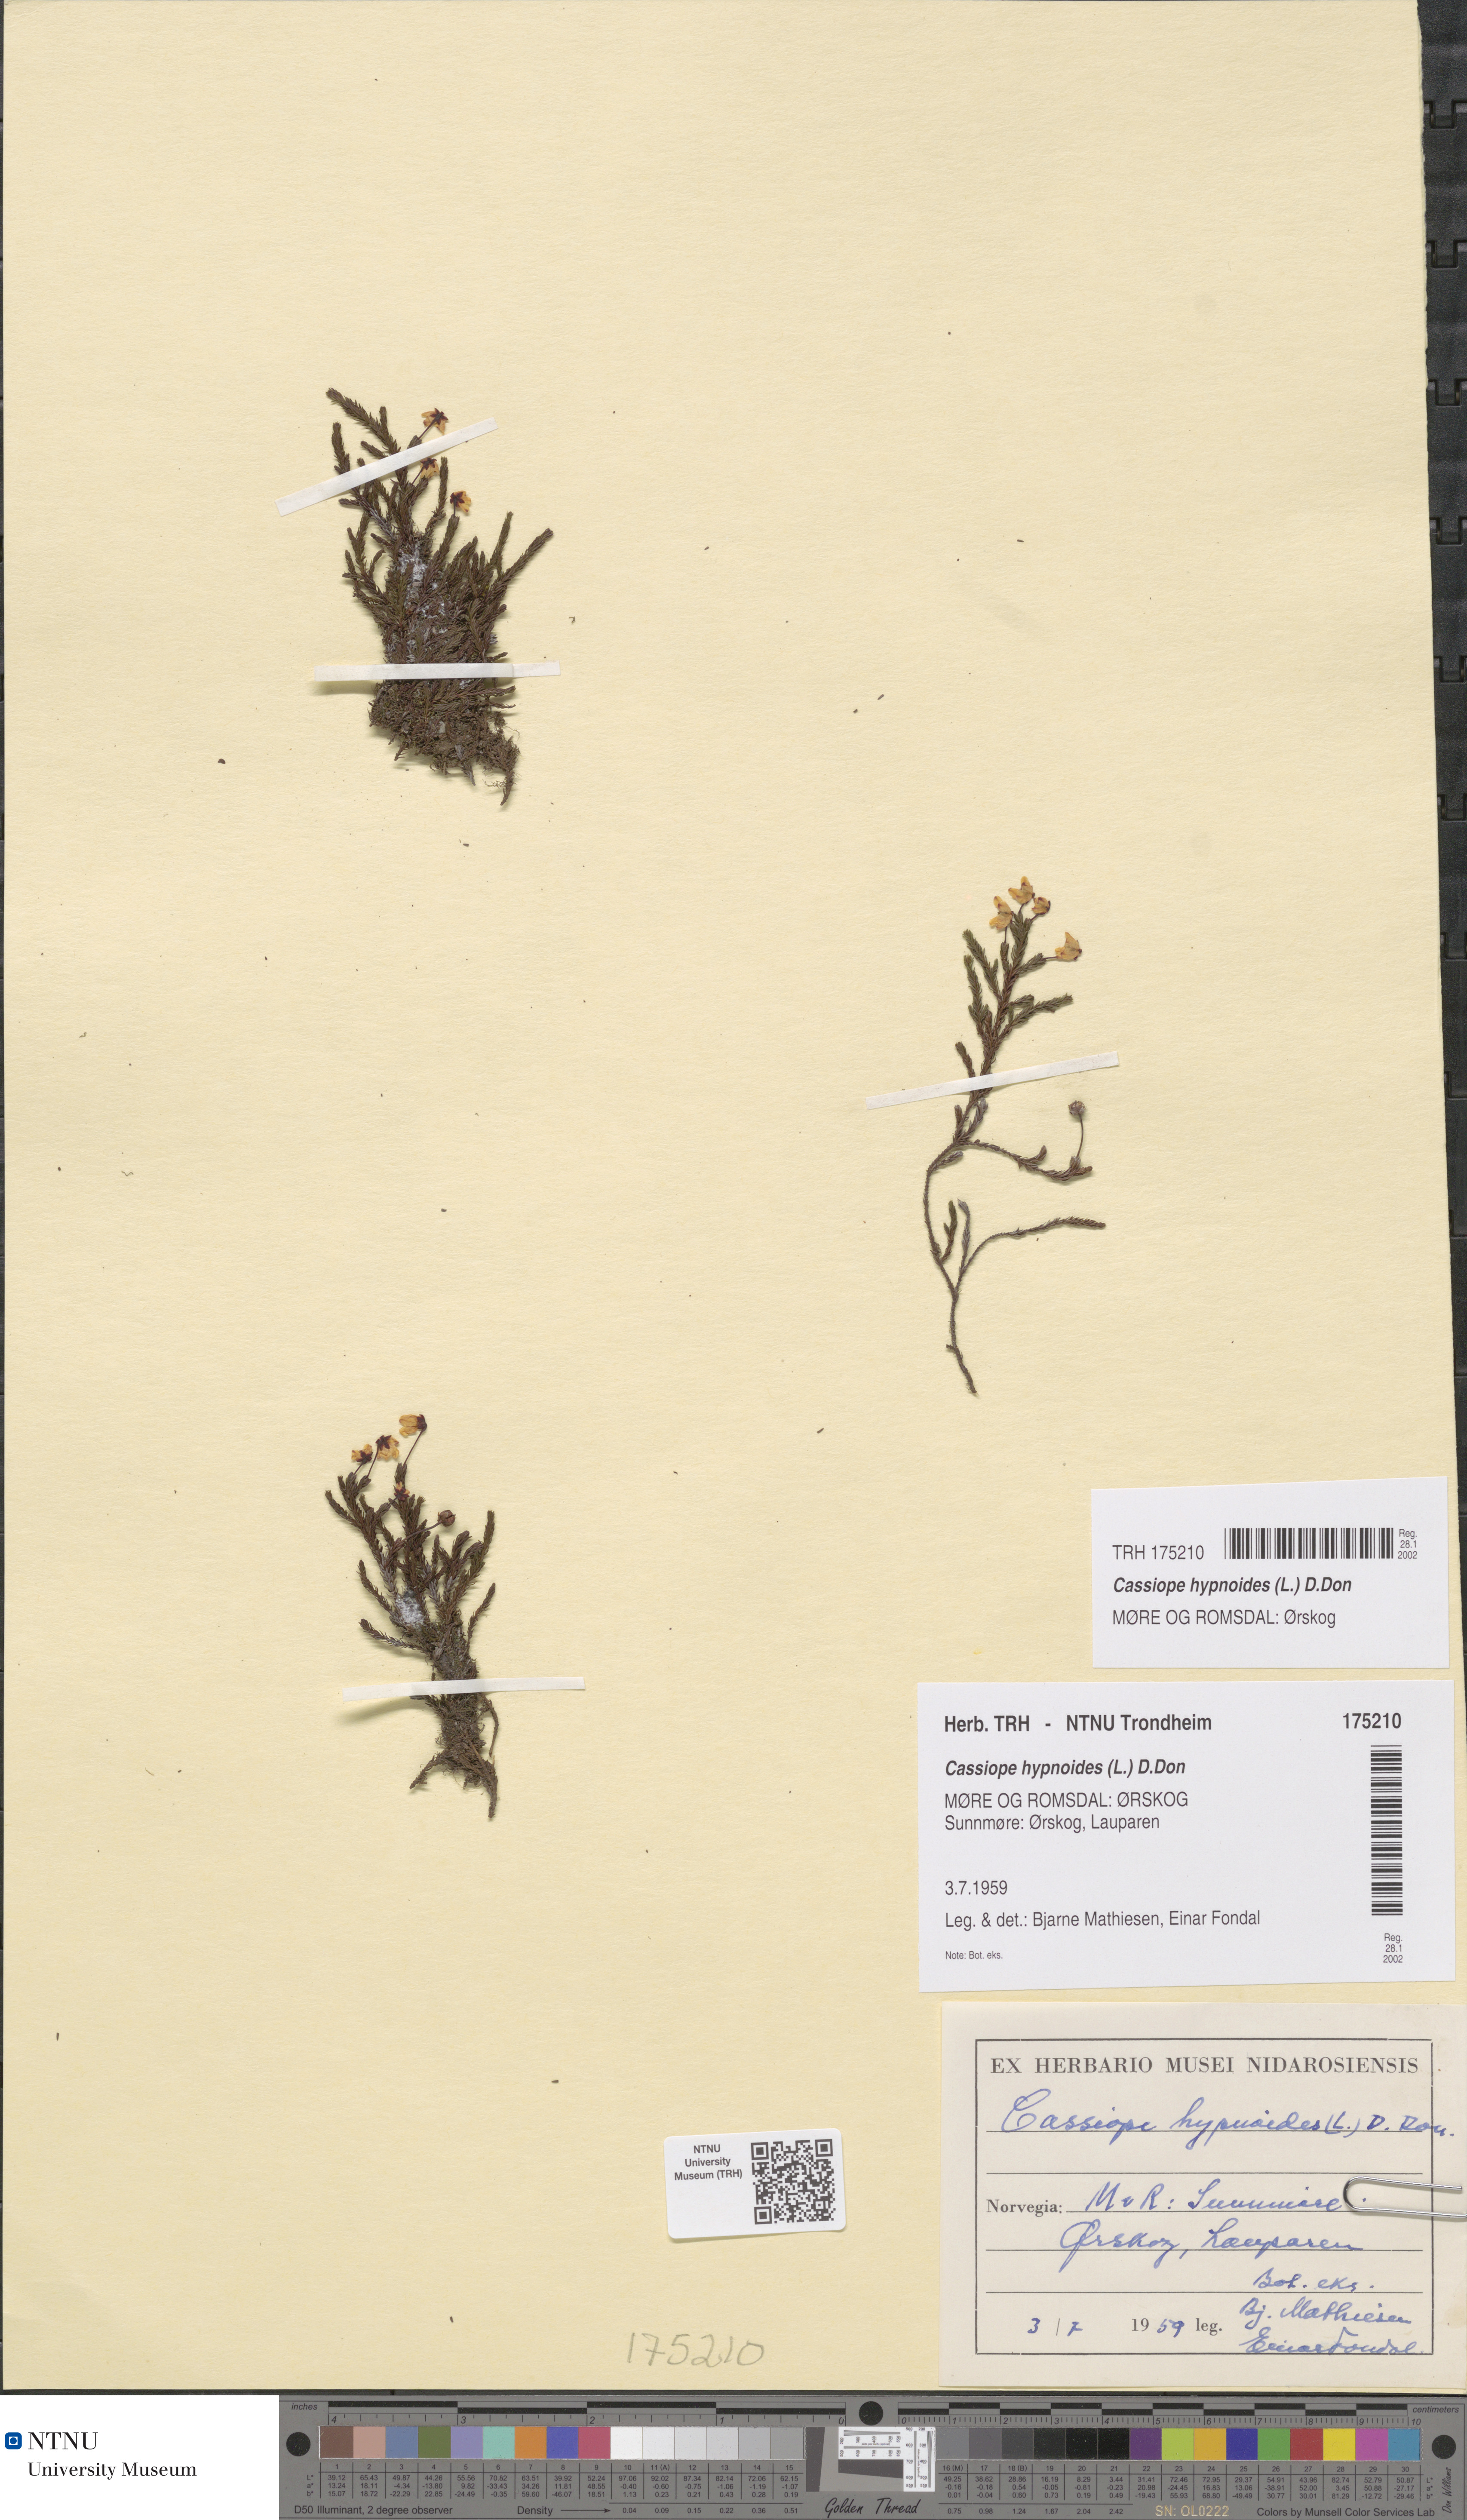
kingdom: Plantae
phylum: Tracheophyta
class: Magnoliopsida
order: Ericales
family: Ericaceae
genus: Harrimanella
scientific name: Harrimanella hypnoides
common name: Moss bell heather
